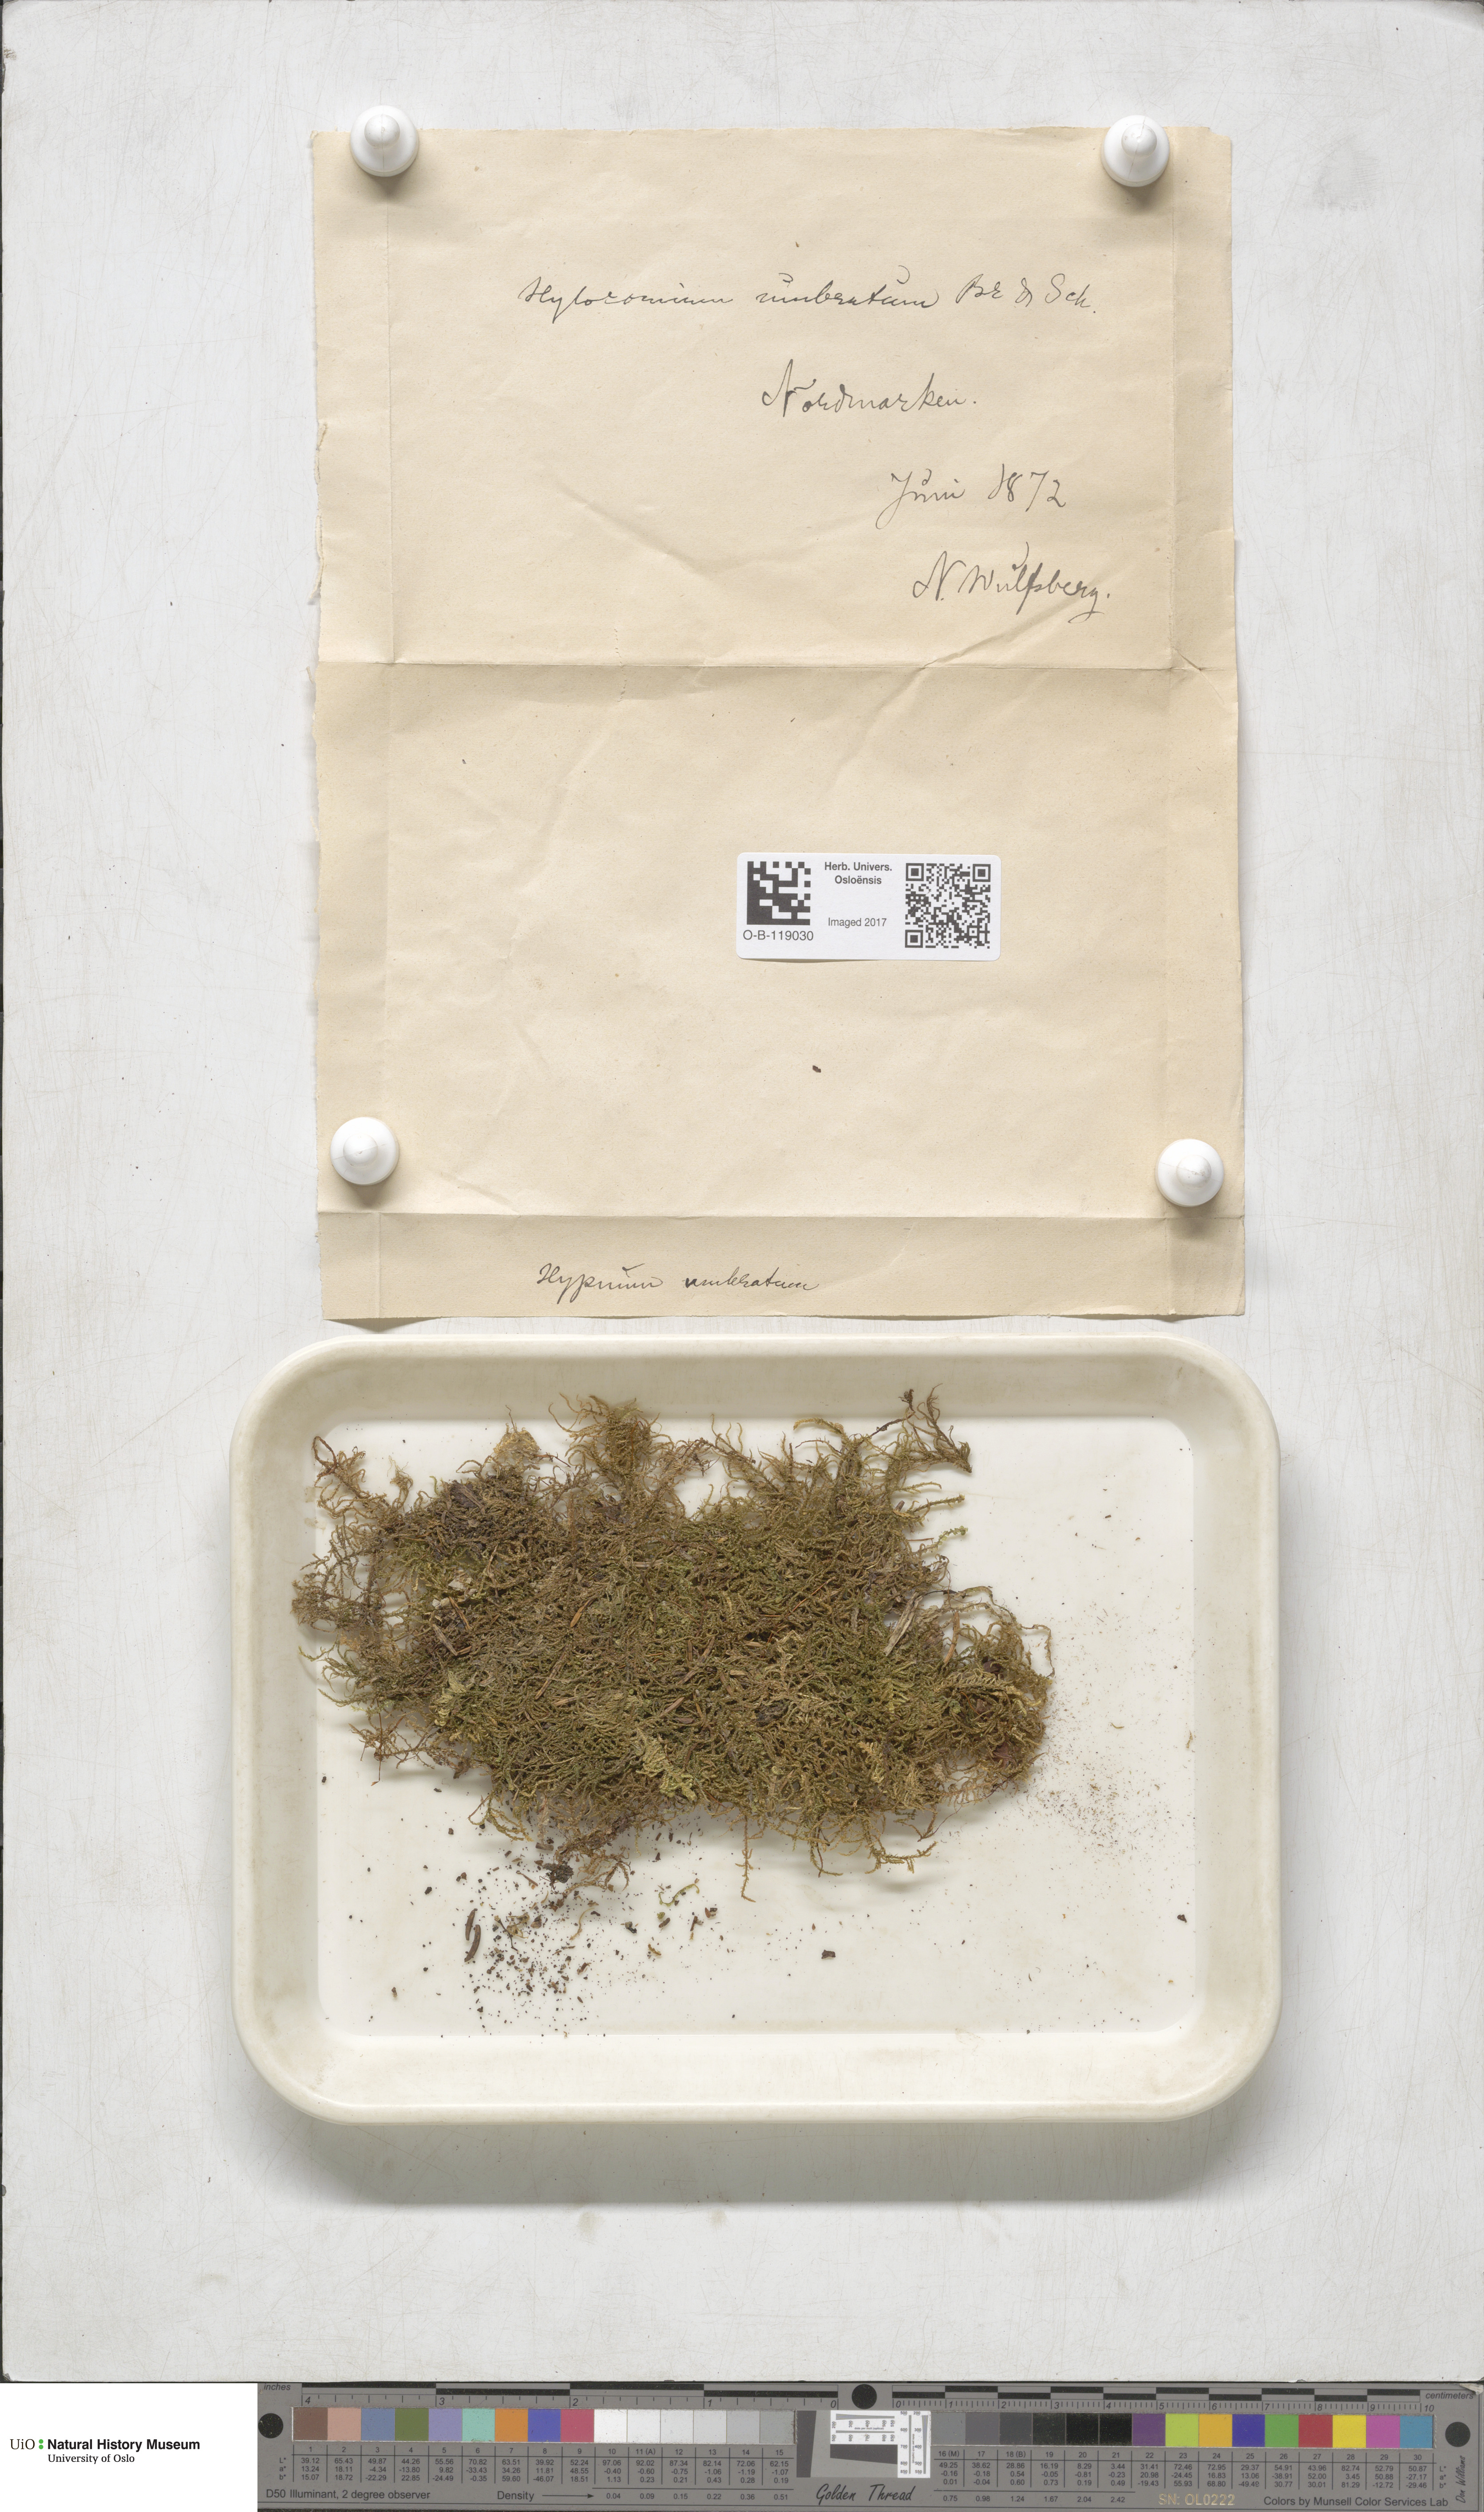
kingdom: Plantae
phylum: Bryophyta
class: Bryopsida
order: Hypnales
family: Hylocomiaceae
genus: Hylocomiastrum
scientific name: Hylocomiastrum umbratum
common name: Shaded woods moss
